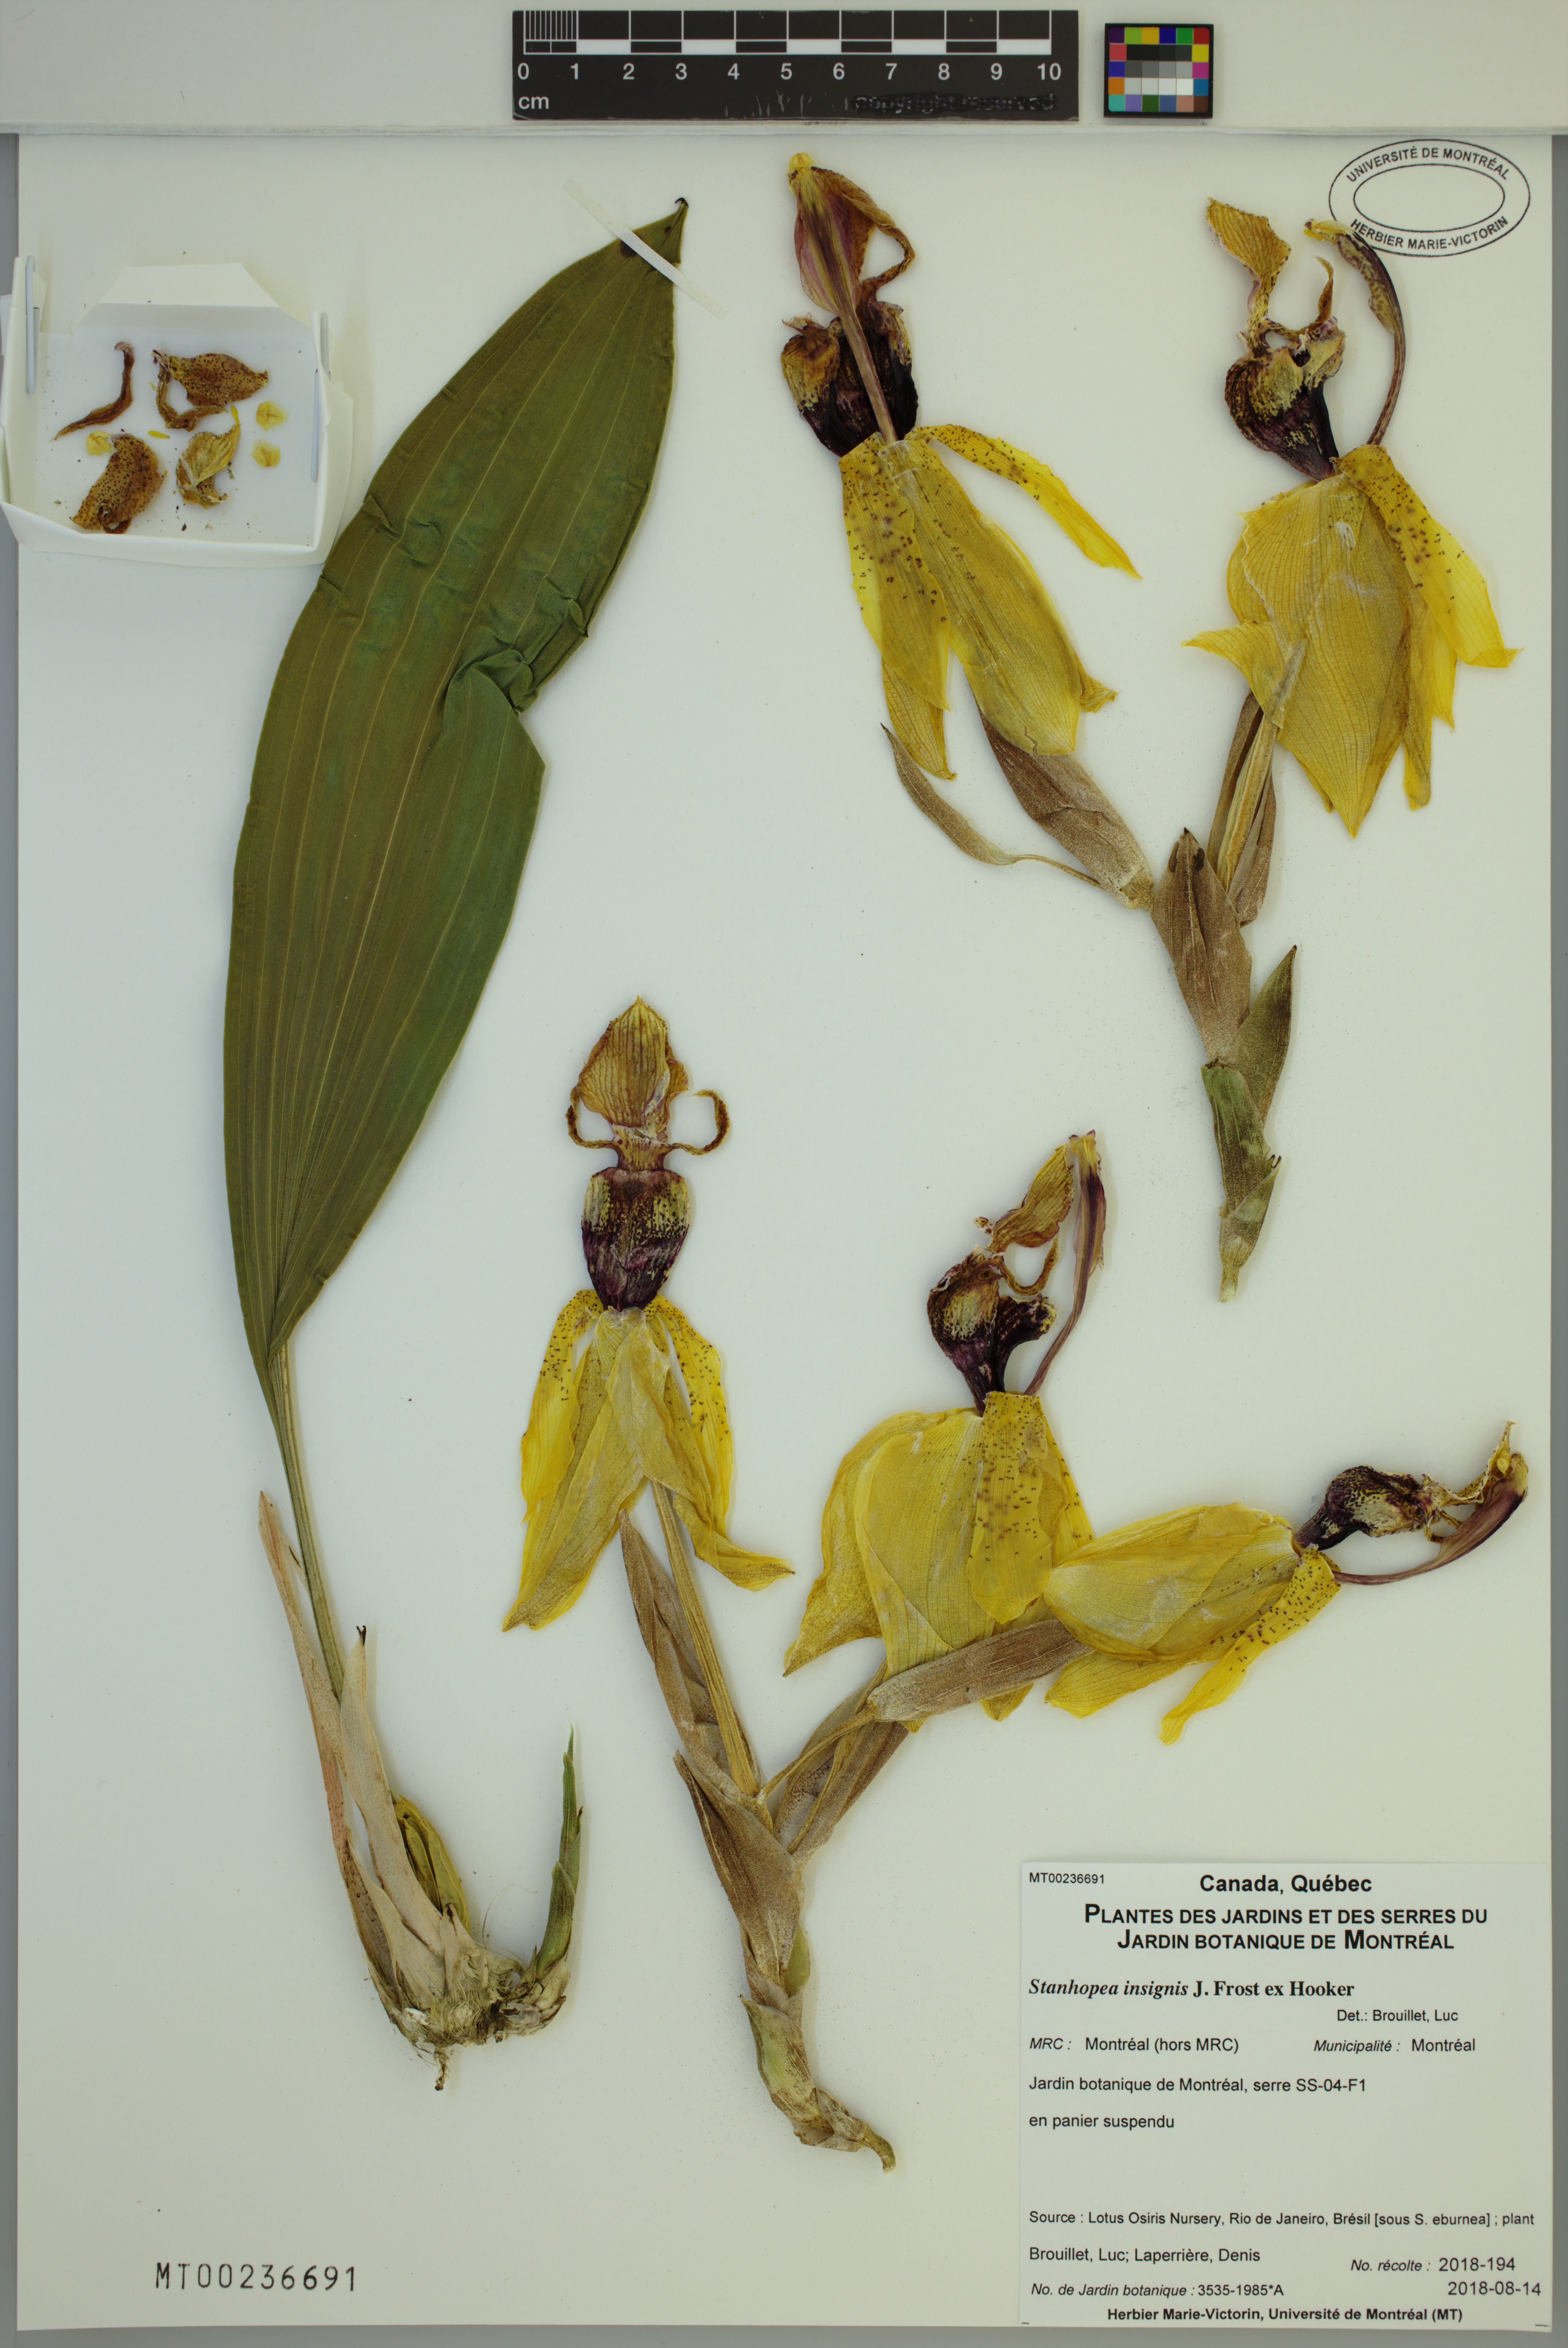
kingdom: Plantae
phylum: Tracheophyta
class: Liliopsida
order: Asparagales
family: Orchidaceae
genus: Stanhopea
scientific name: Stanhopea insignis
